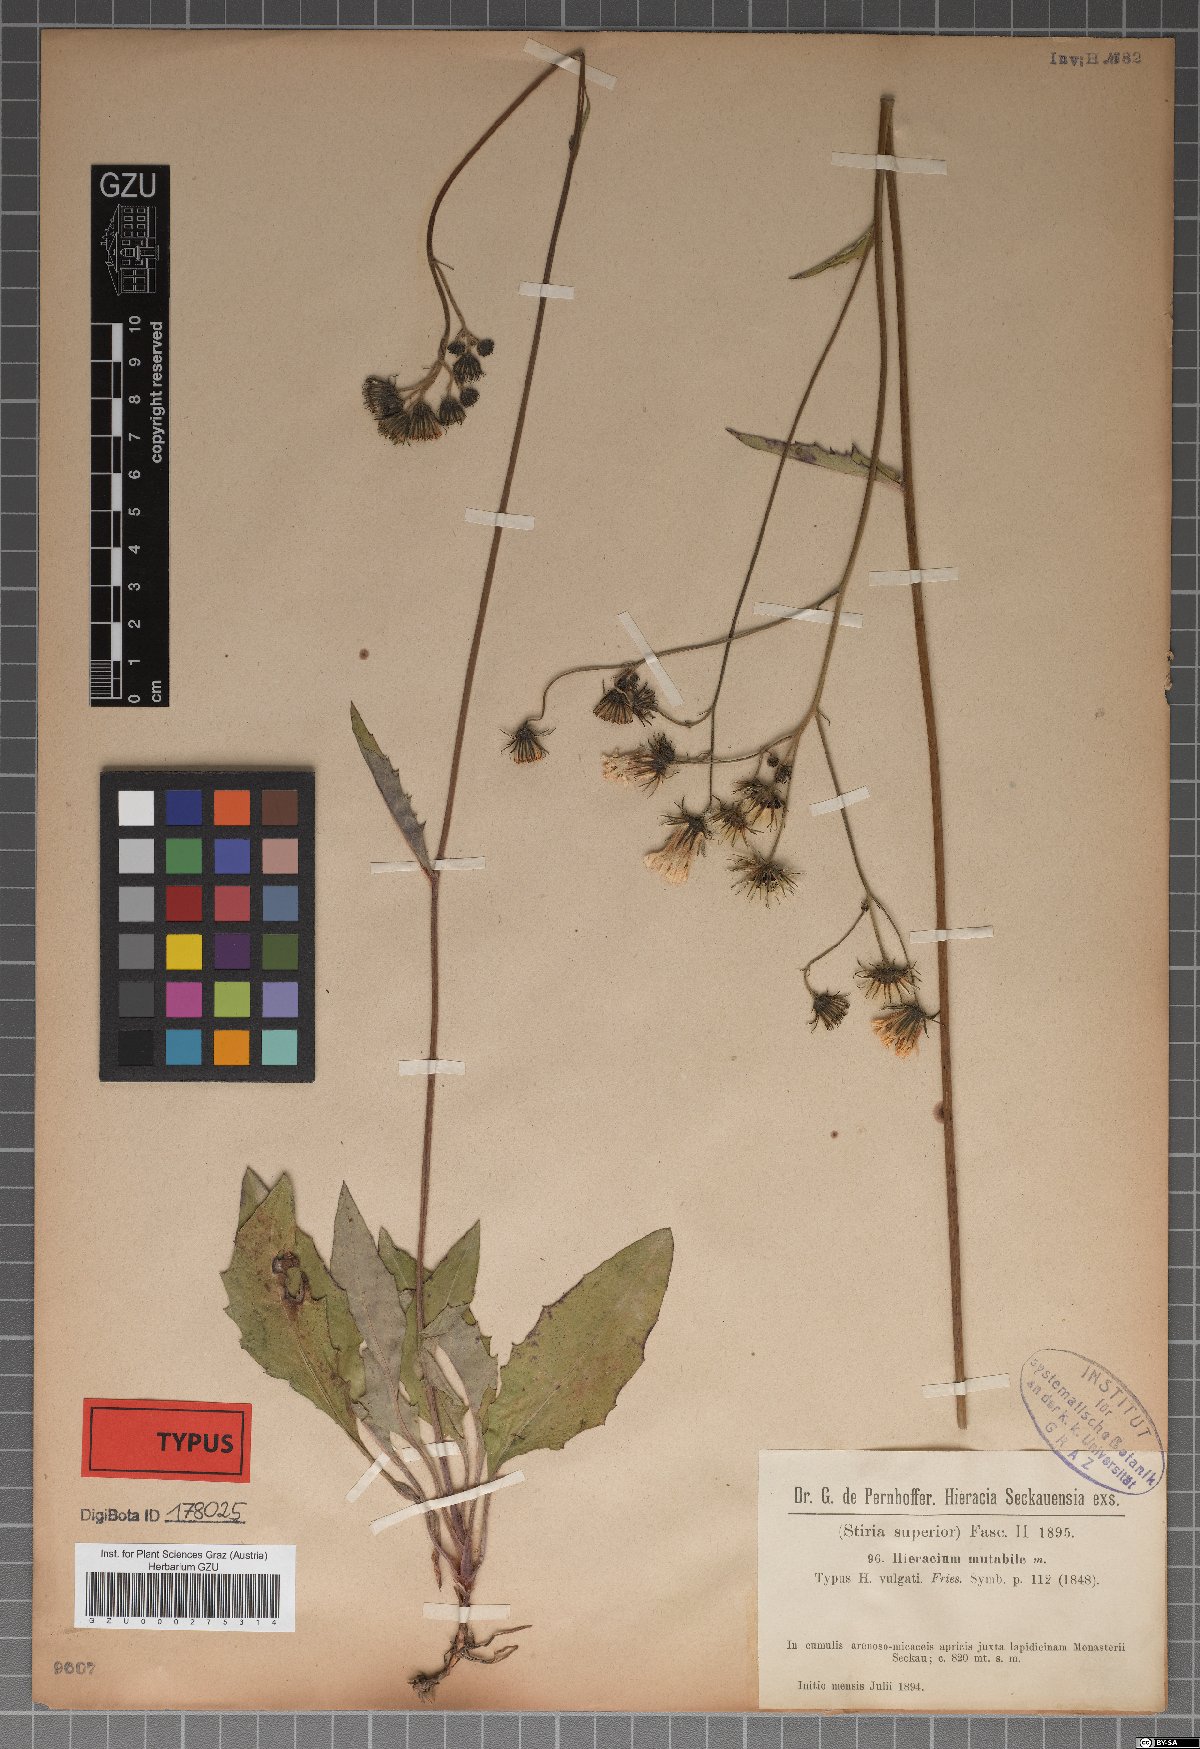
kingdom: Plantae
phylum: Tracheophyta
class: Magnoliopsida
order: Asterales
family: Asteraceae
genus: Hieracium
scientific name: Hieracium mutabile
